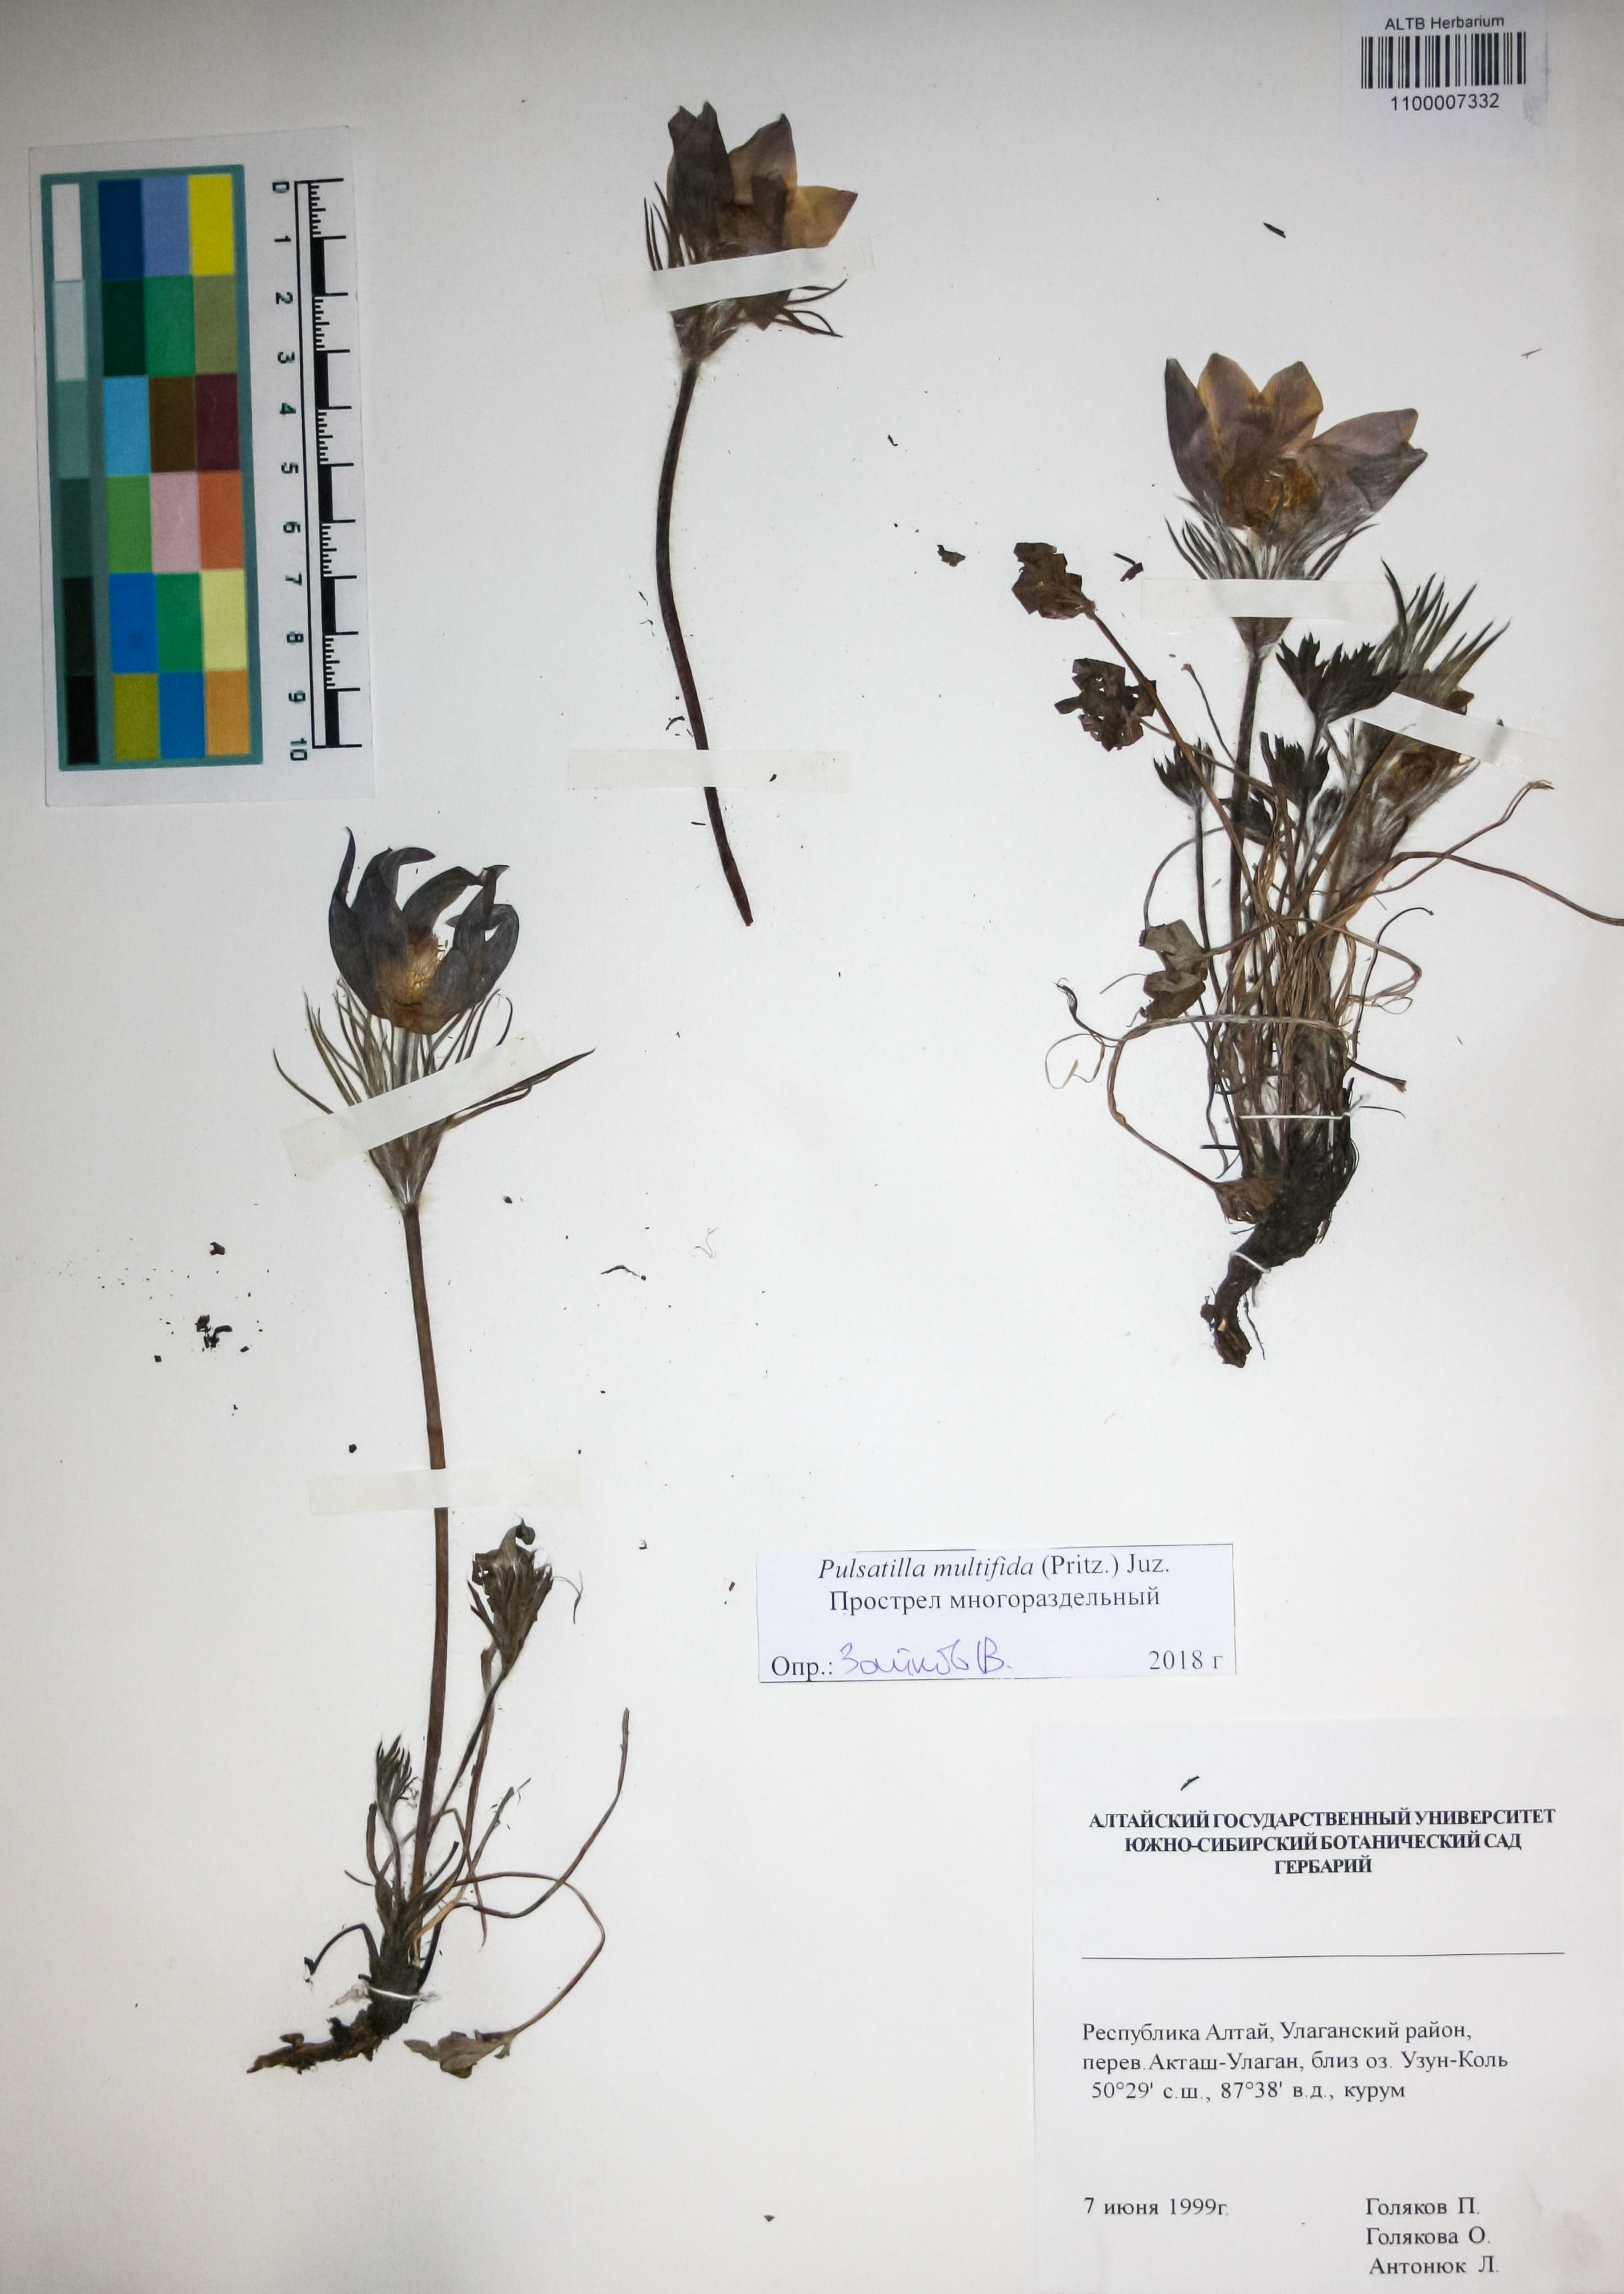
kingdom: Plantae
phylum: Tracheophyta
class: Magnoliopsida
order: Ranunculales
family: Ranunculaceae
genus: Pulsatilla
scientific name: Pulsatilla patens
